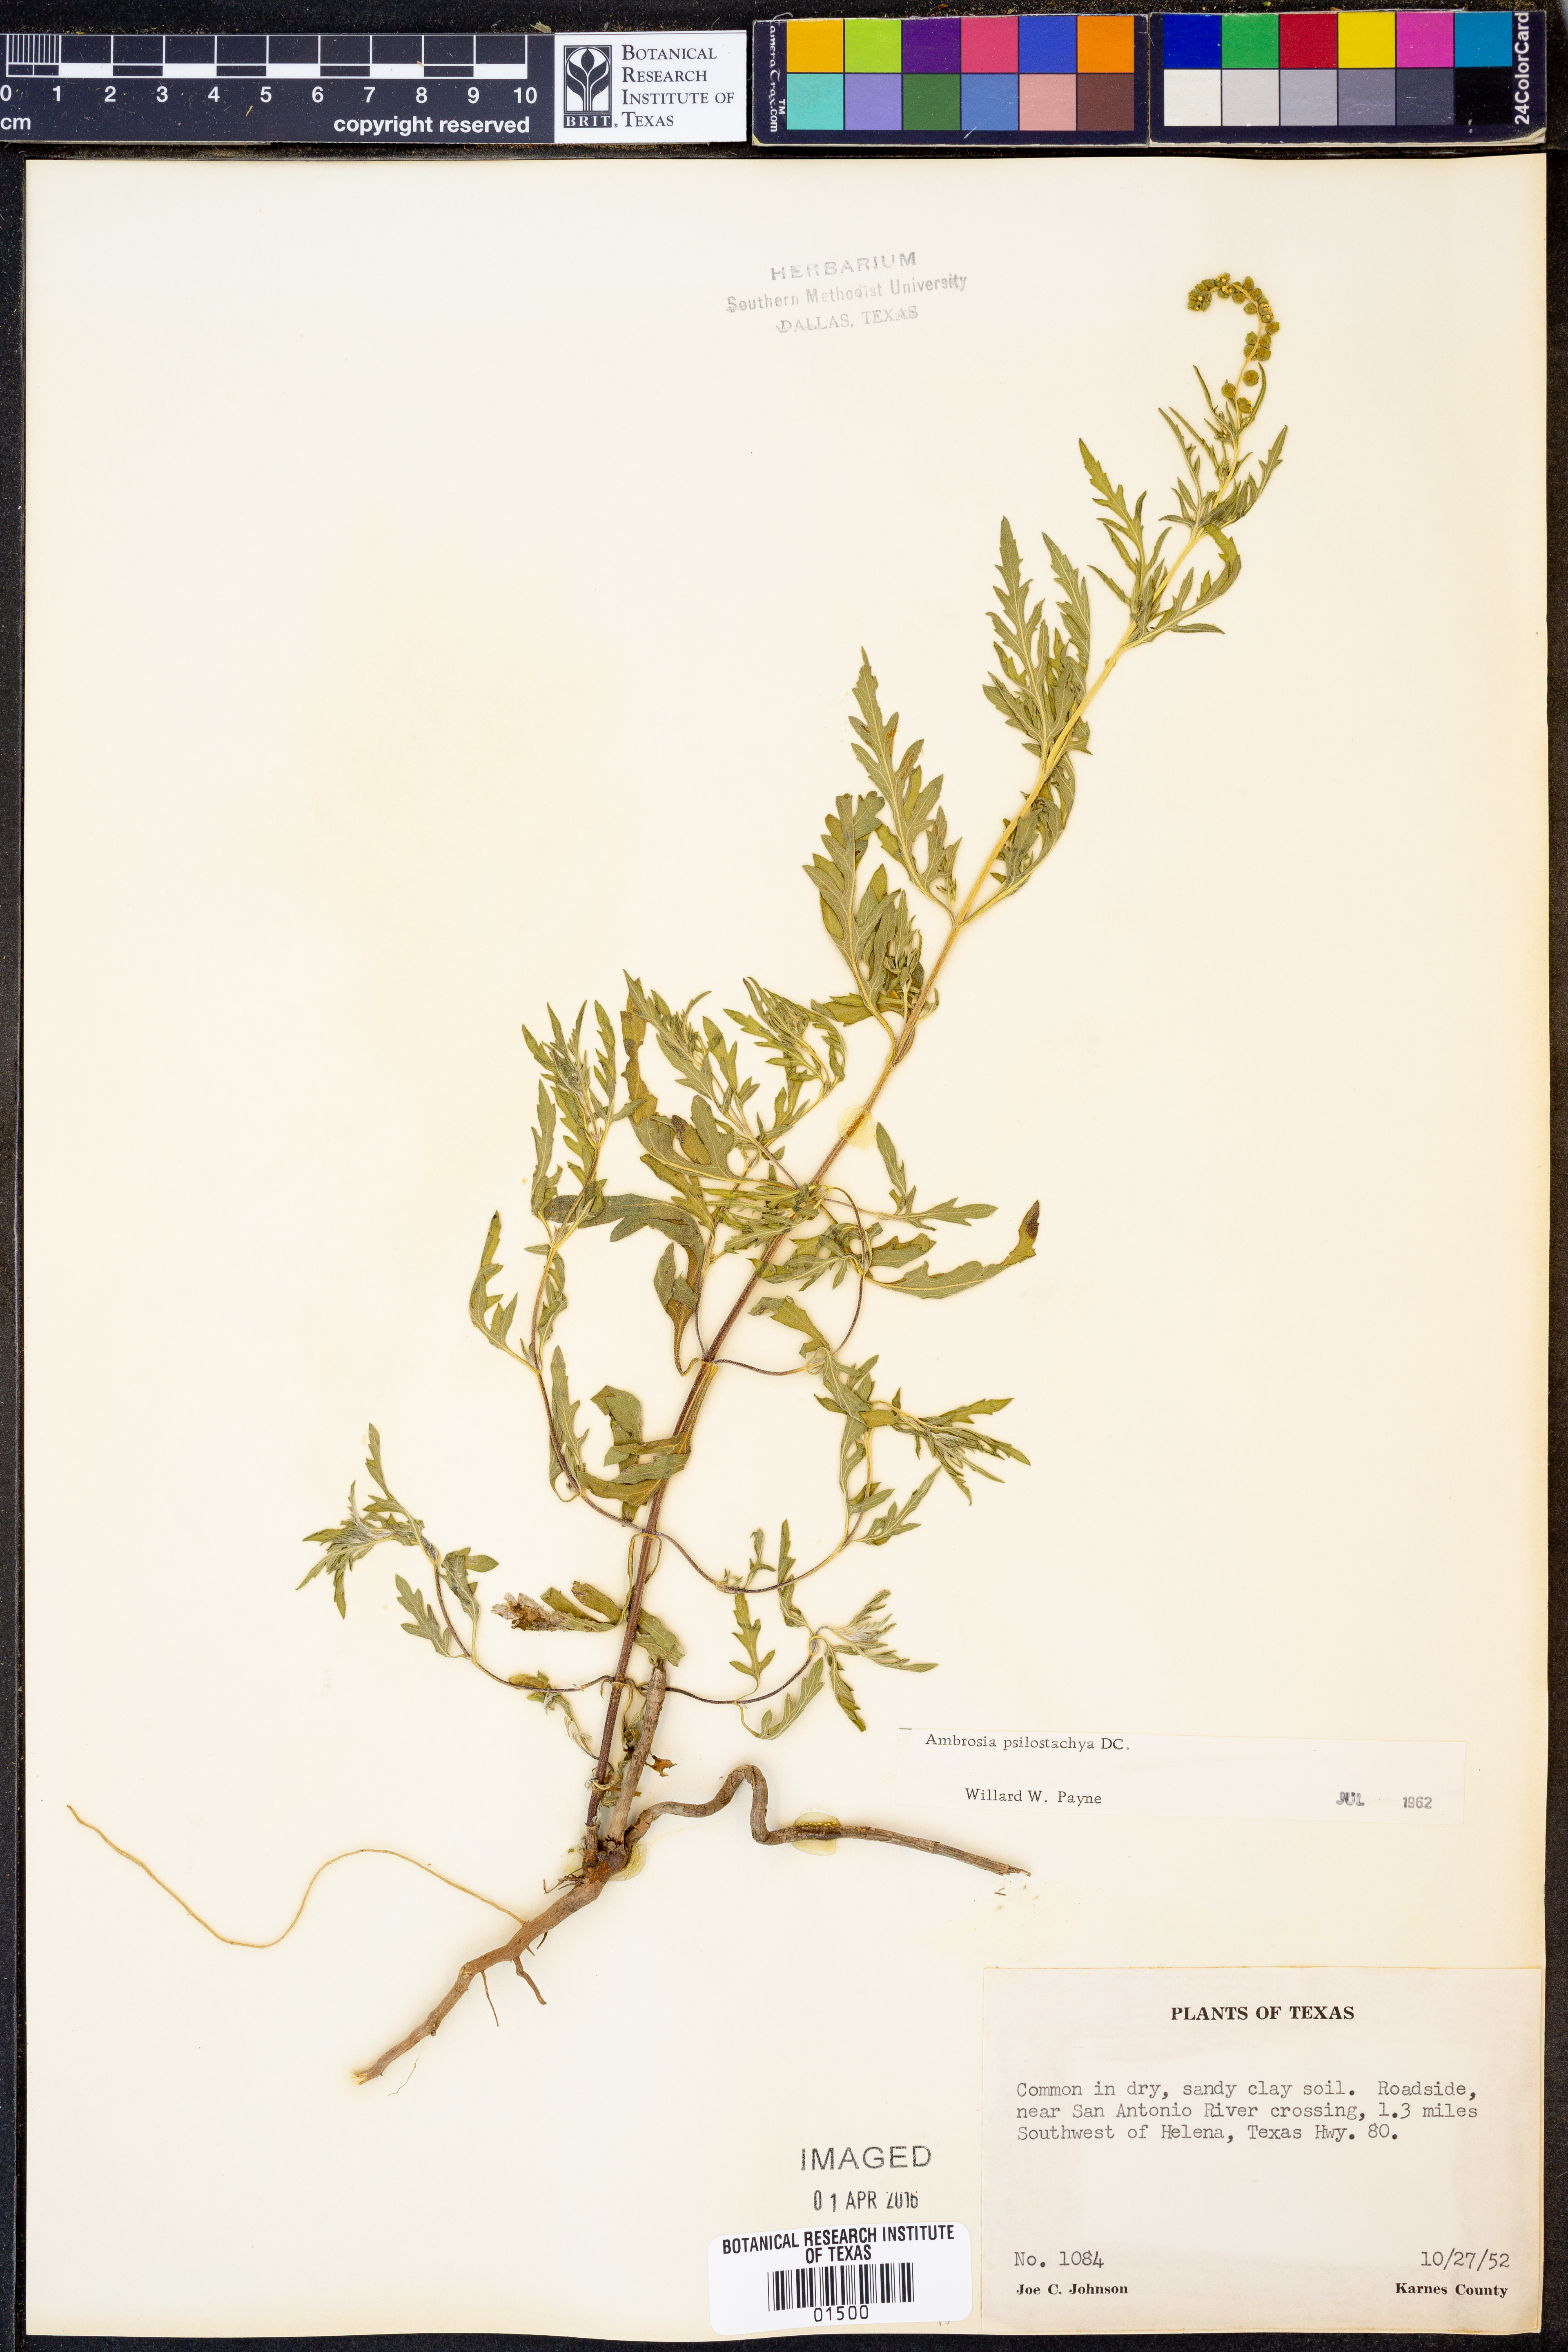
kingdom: Plantae
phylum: Tracheophyta
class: Magnoliopsida
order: Asterales
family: Asteraceae
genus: Ambrosia
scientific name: Ambrosia psilostachya
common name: Perennial ragweed
